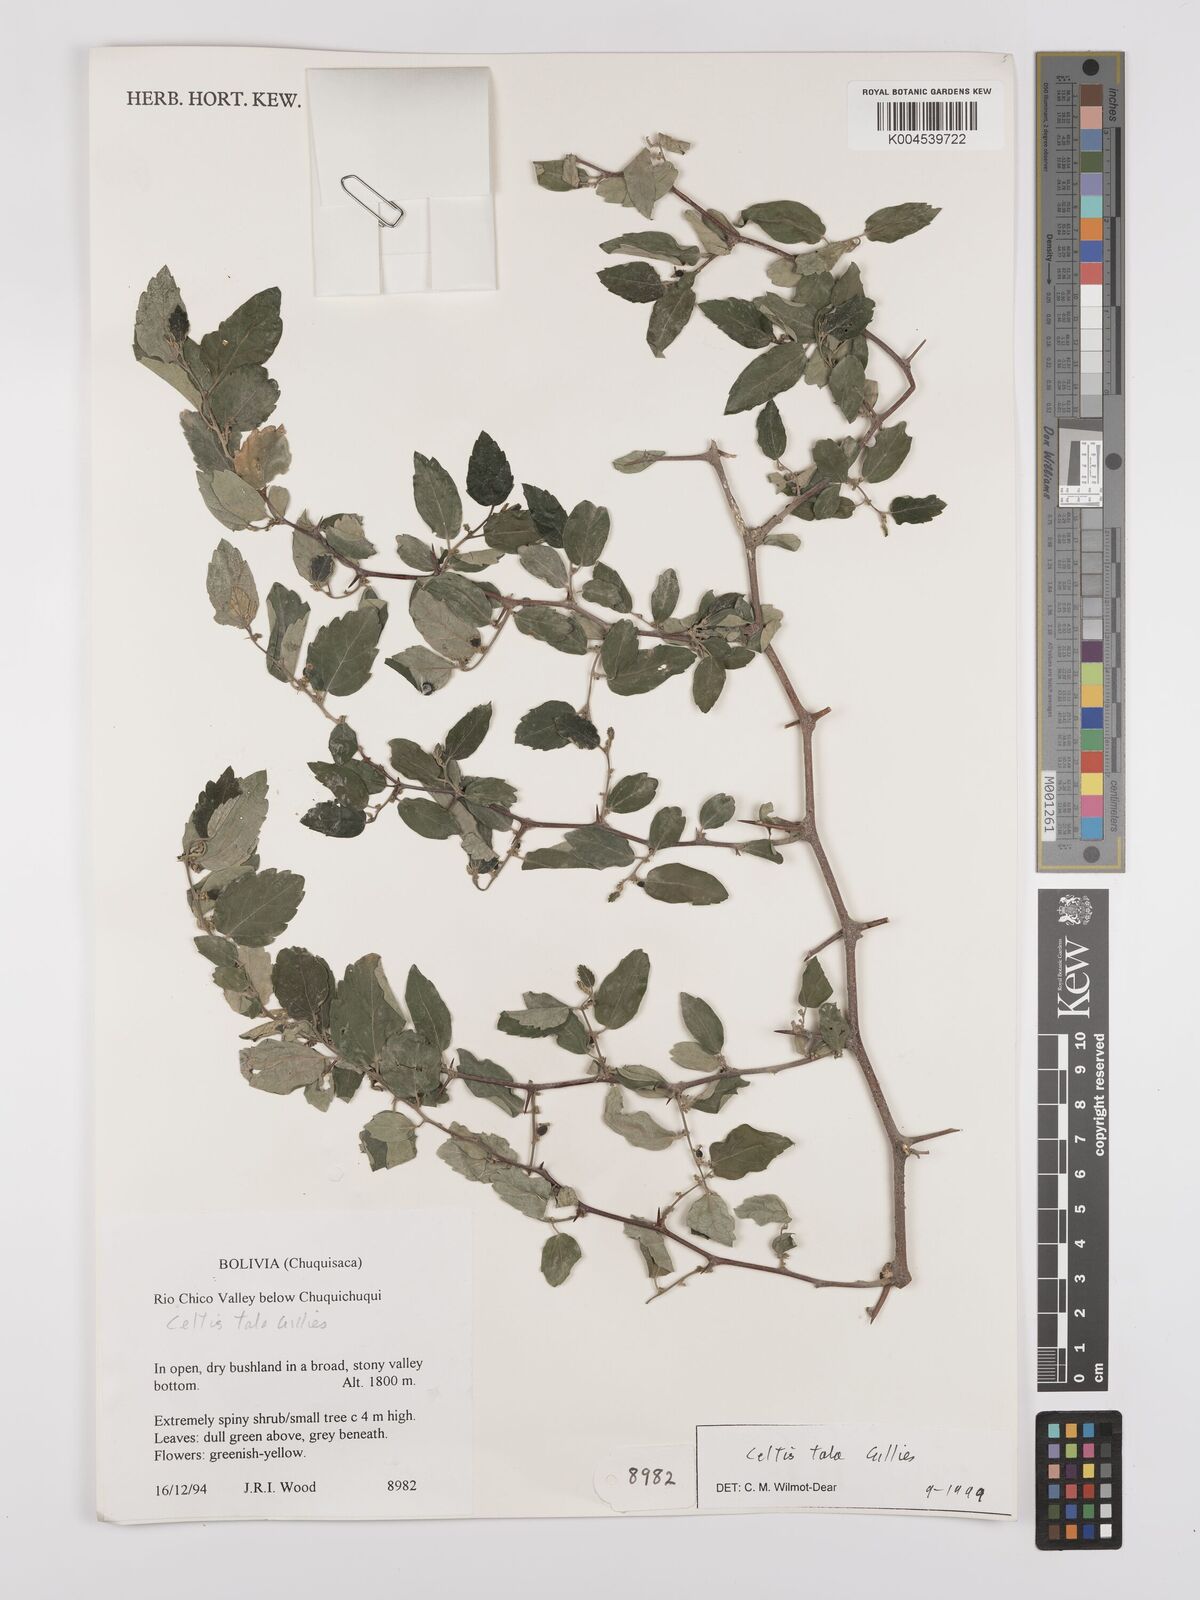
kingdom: Plantae
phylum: Tracheophyta
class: Magnoliopsida
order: Rosales
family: Cannabaceae
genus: Celtis
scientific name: Celtis tala
